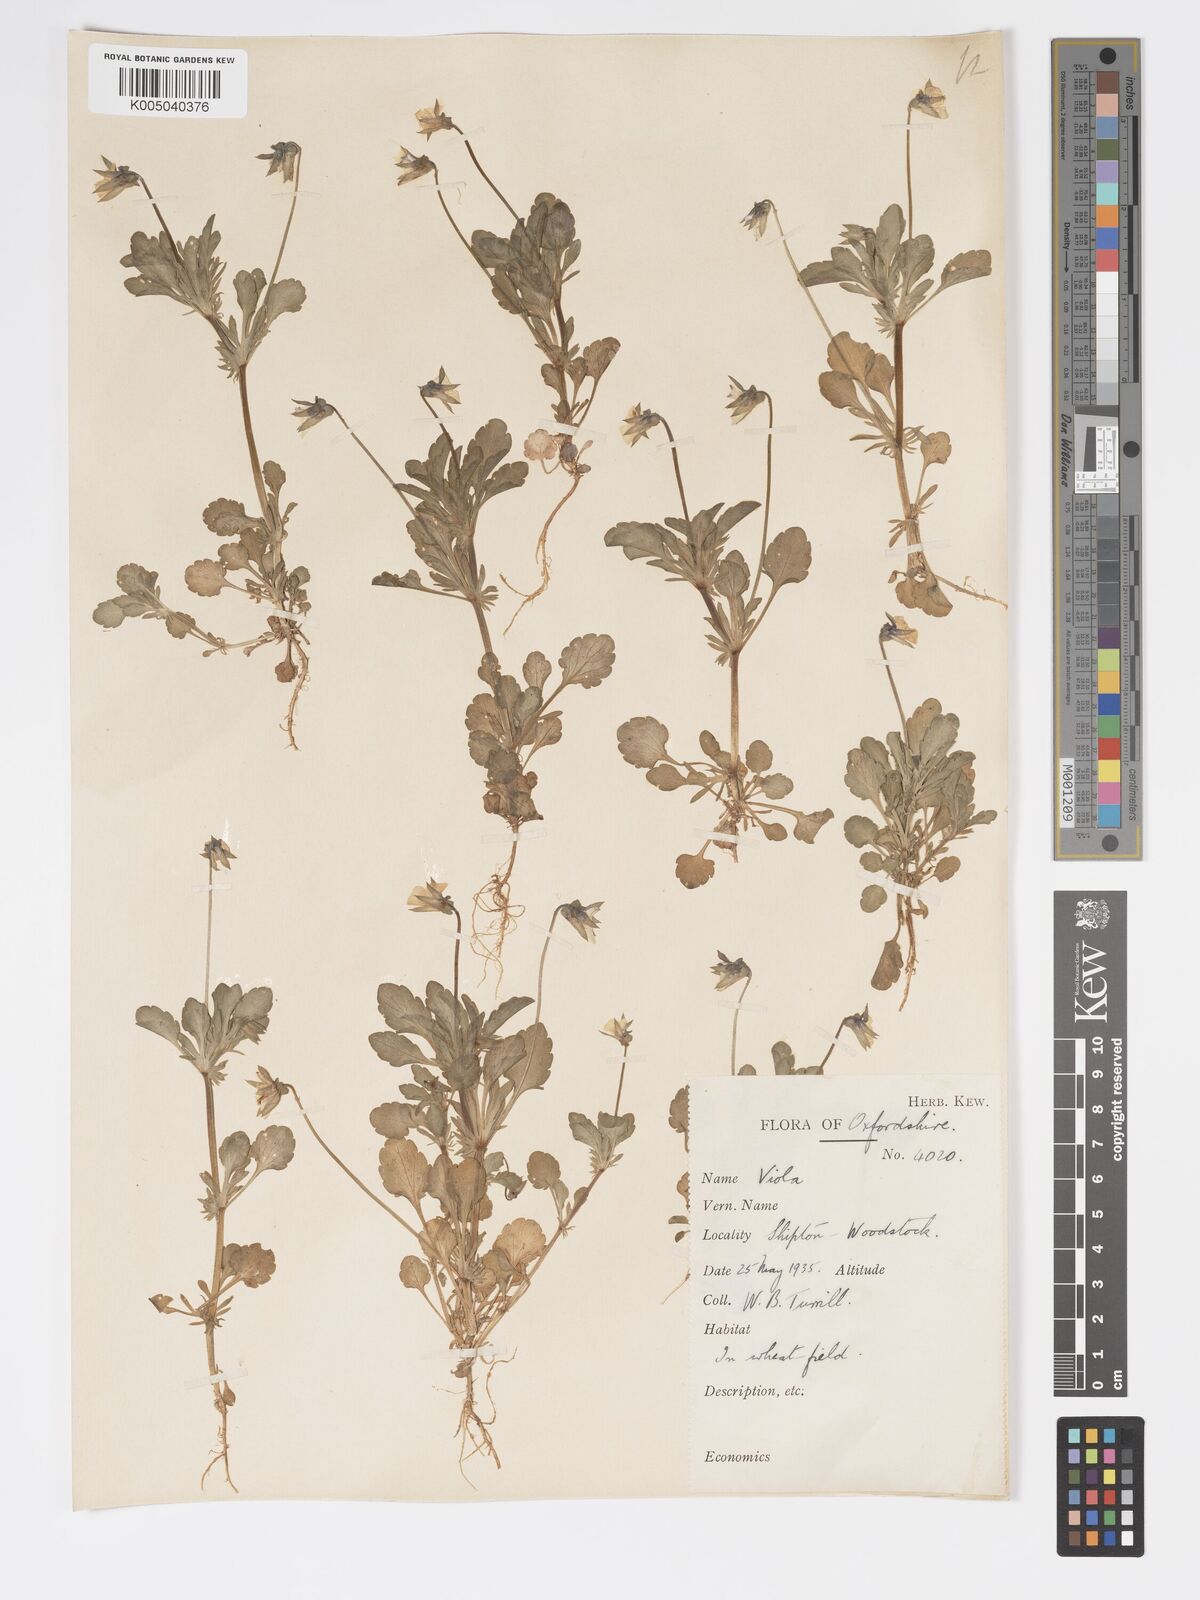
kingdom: Plantae
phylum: Tracheophyta
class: Magnoliopsida
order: Malpighiales
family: Violaceae
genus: Viola
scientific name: Viola arvensis
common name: Field pansy
